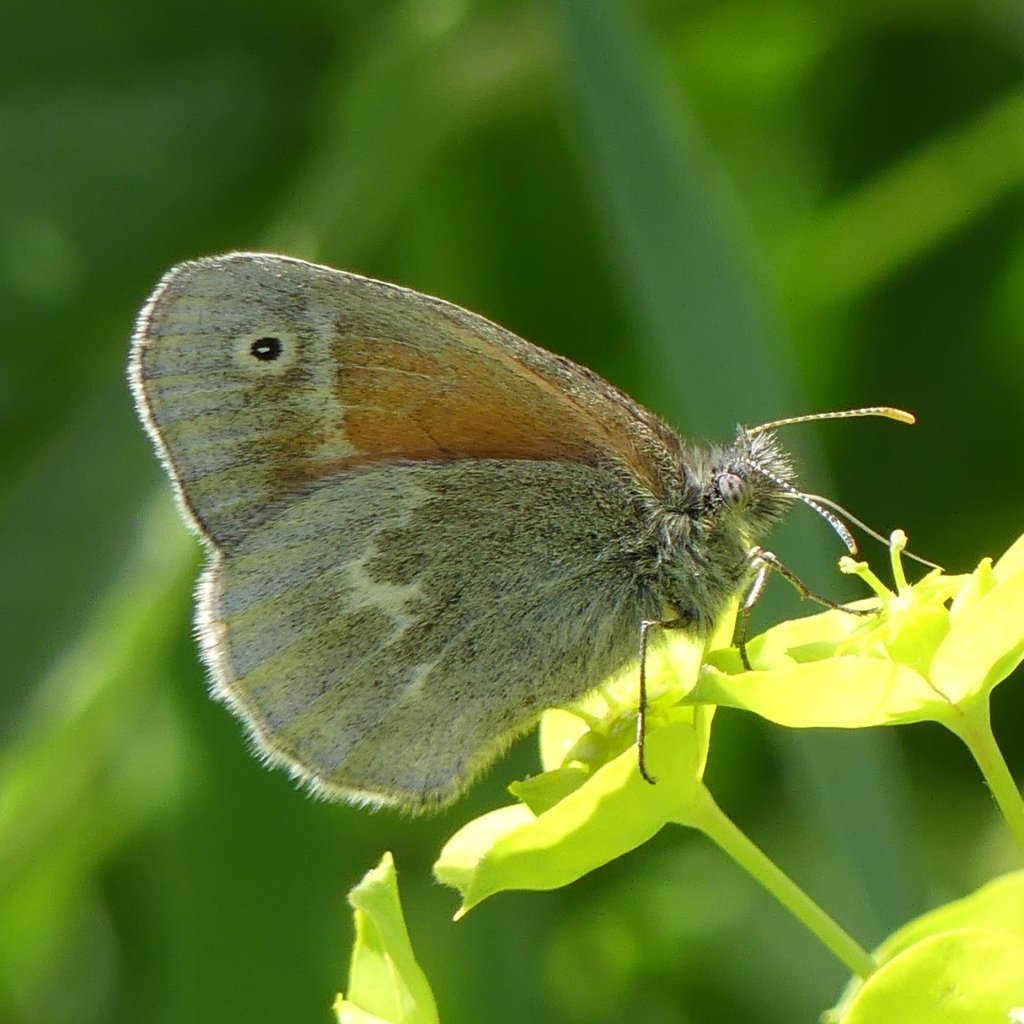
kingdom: Animalia
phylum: Arthropoda
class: Insecta
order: Lepidoptera
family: Nymphalidae
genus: Coenonympha
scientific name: Coenonympha tullia
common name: Large Heath
